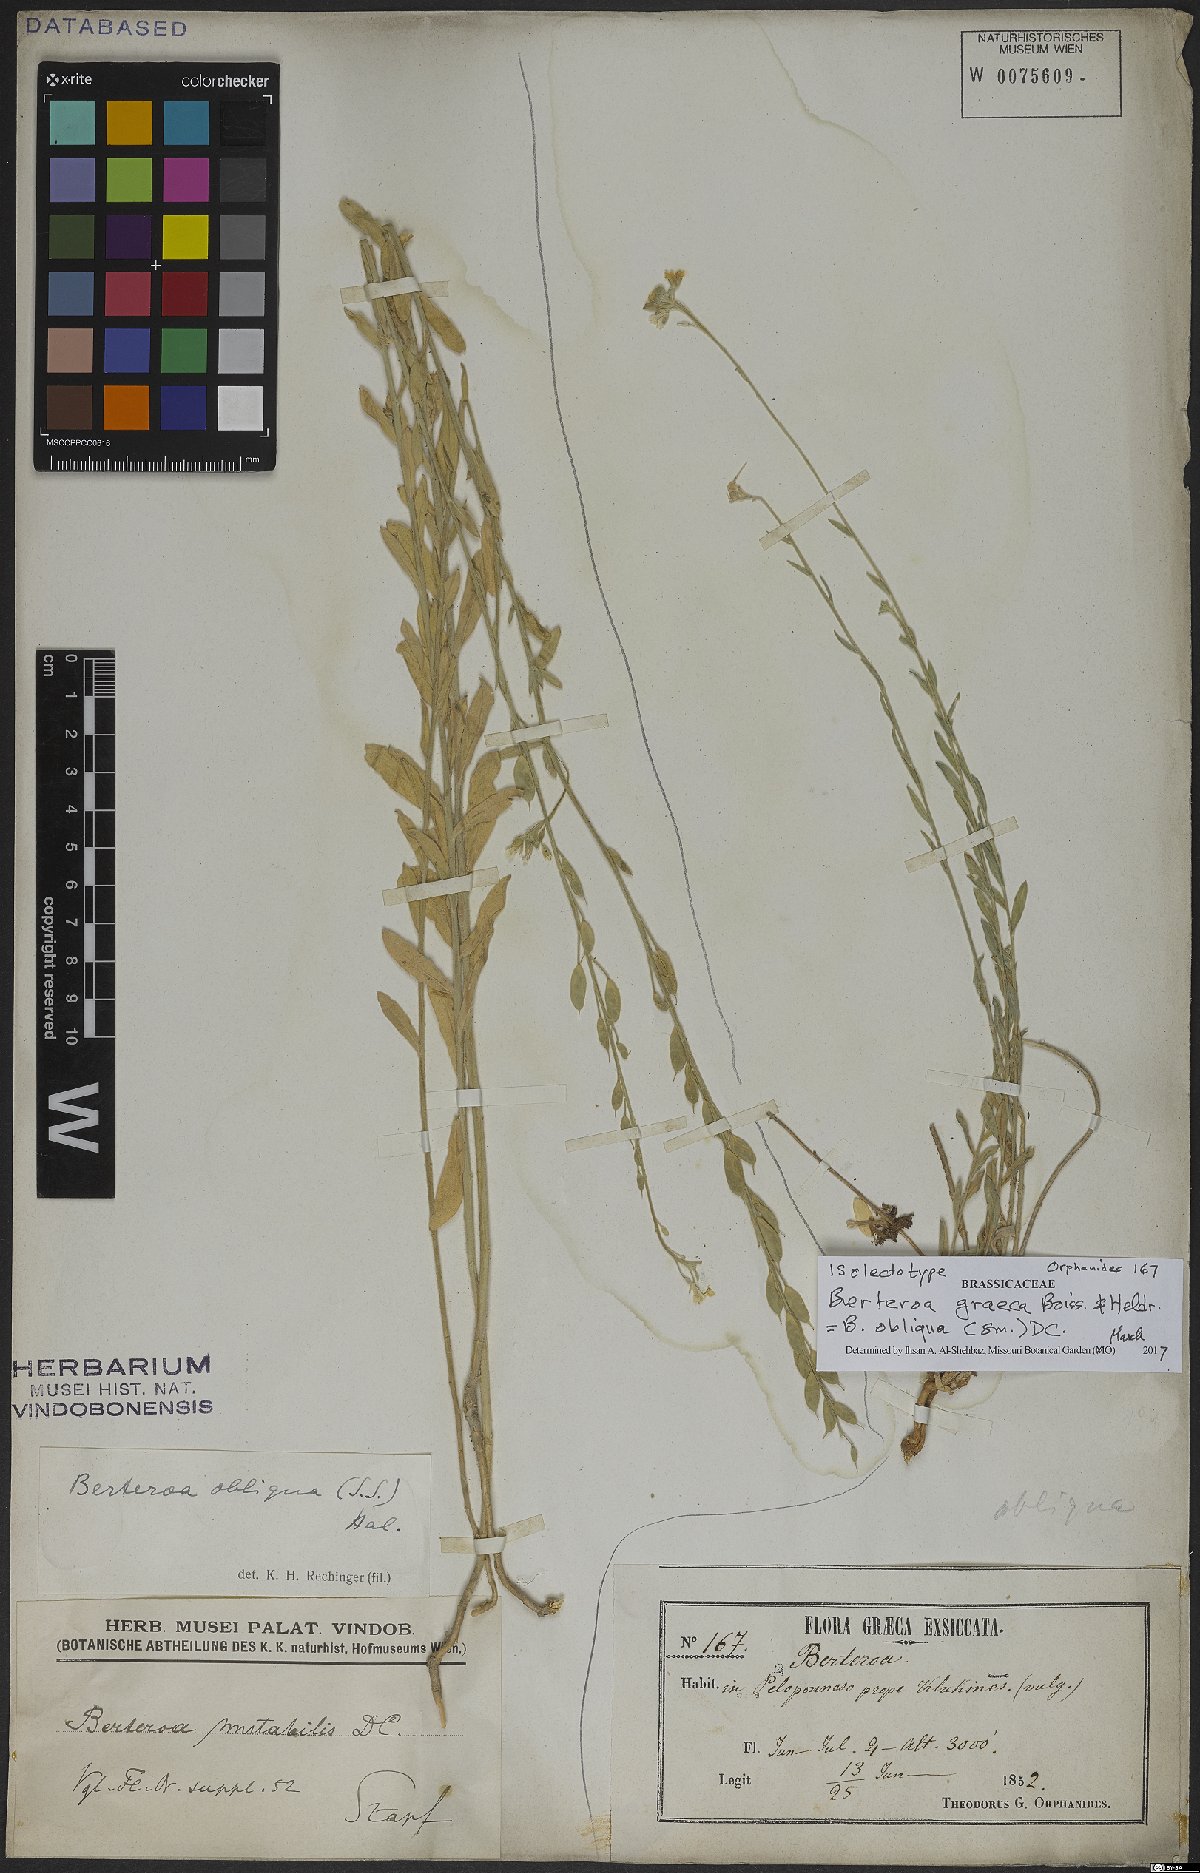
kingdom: Plantae
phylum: Tracheophyta
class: Magnoliopsida
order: Brassicales
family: Brassicaceae
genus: Berteroa
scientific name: Berteroa obliqua
